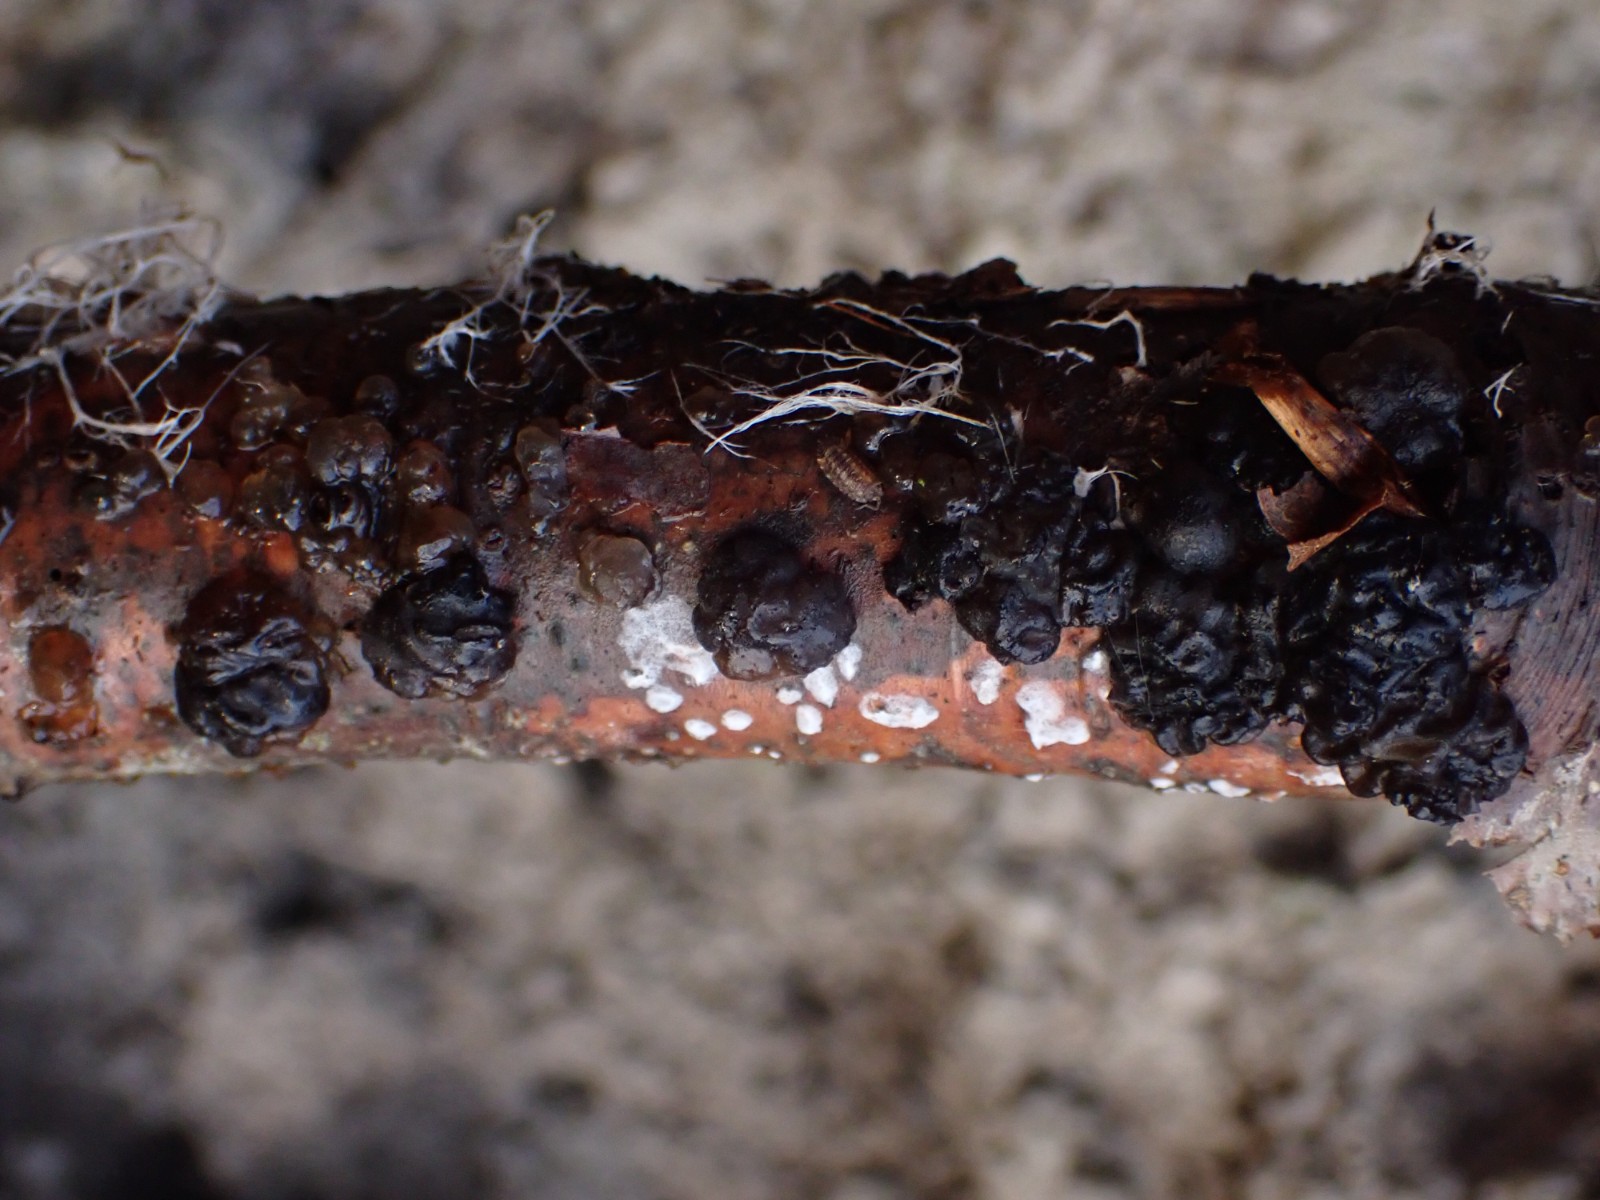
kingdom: Fungi
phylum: Basidiomycota
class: Agaricomycetes
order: Auriculariales
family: Auriculariaceae
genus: Exidia
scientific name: Exidia nigricans
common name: almindelig bævretop
